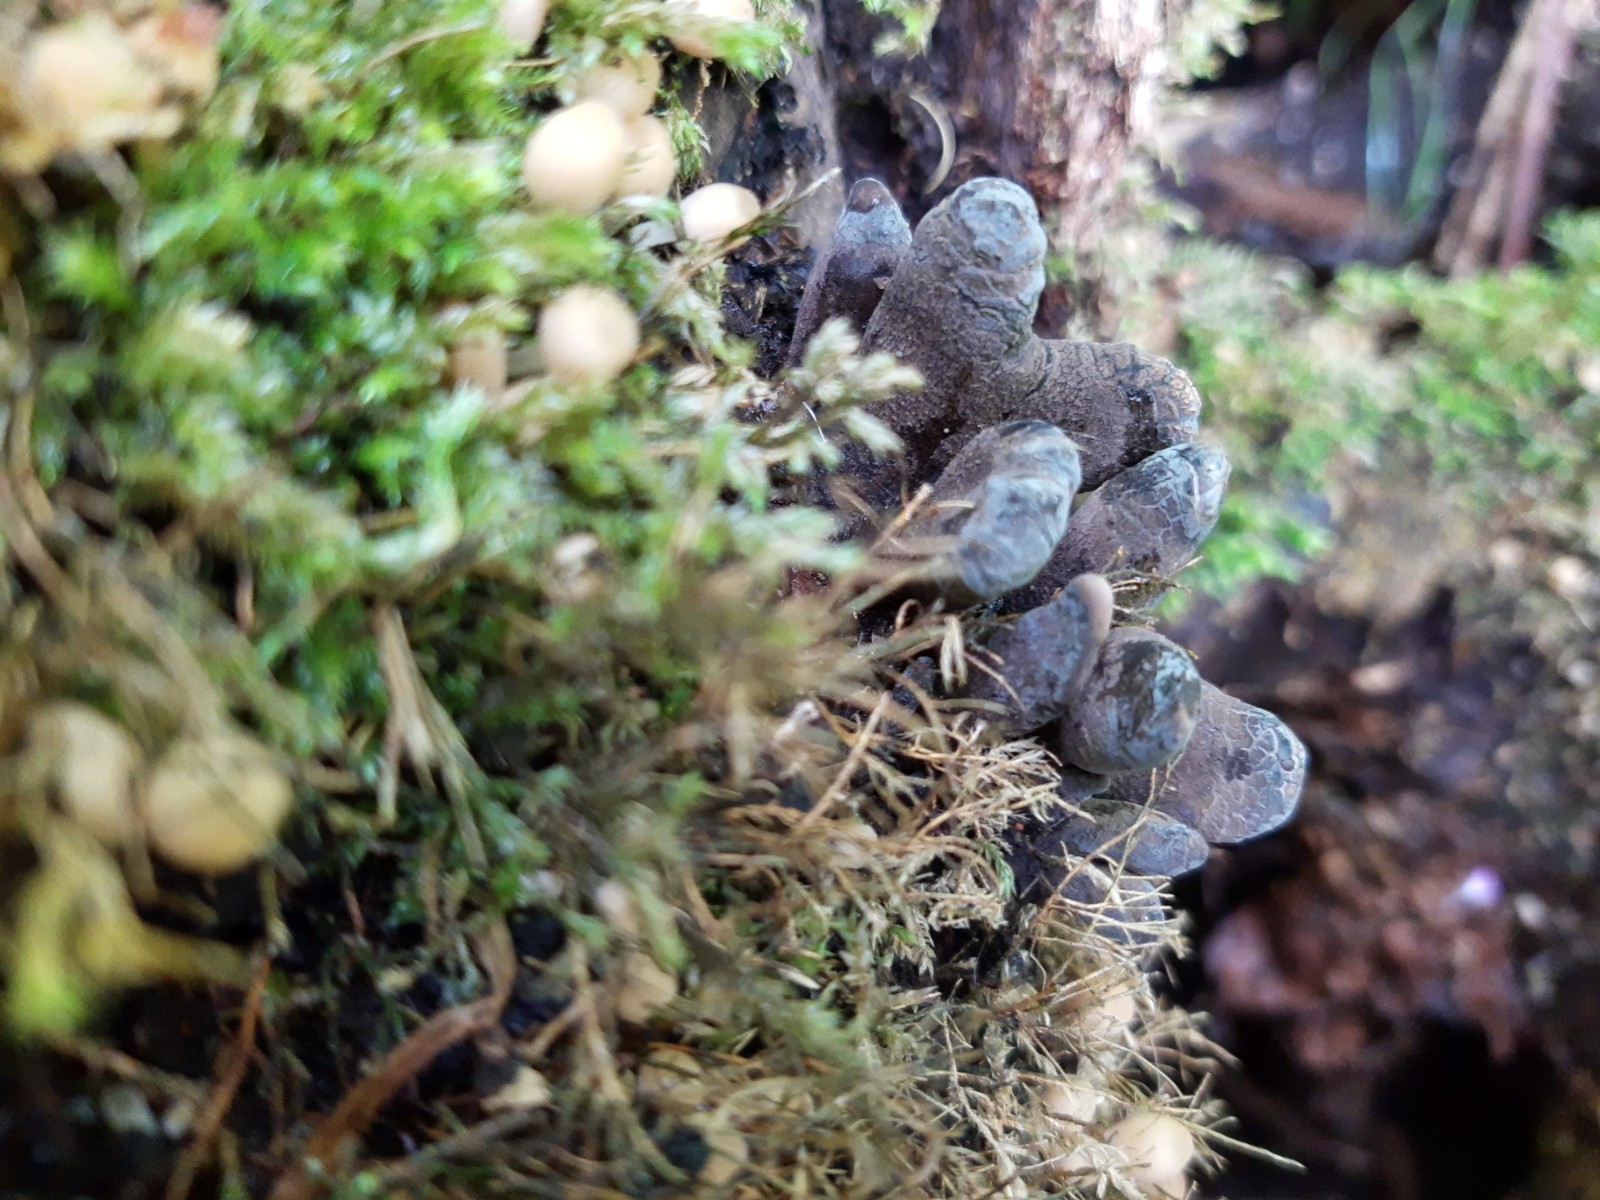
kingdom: Fungi
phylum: Ascomycota
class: Sordariomycetes
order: Xylariales
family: Xylariaceae
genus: Xylaria
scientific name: Xylaria polymorpha
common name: kølle-stødsvamp
